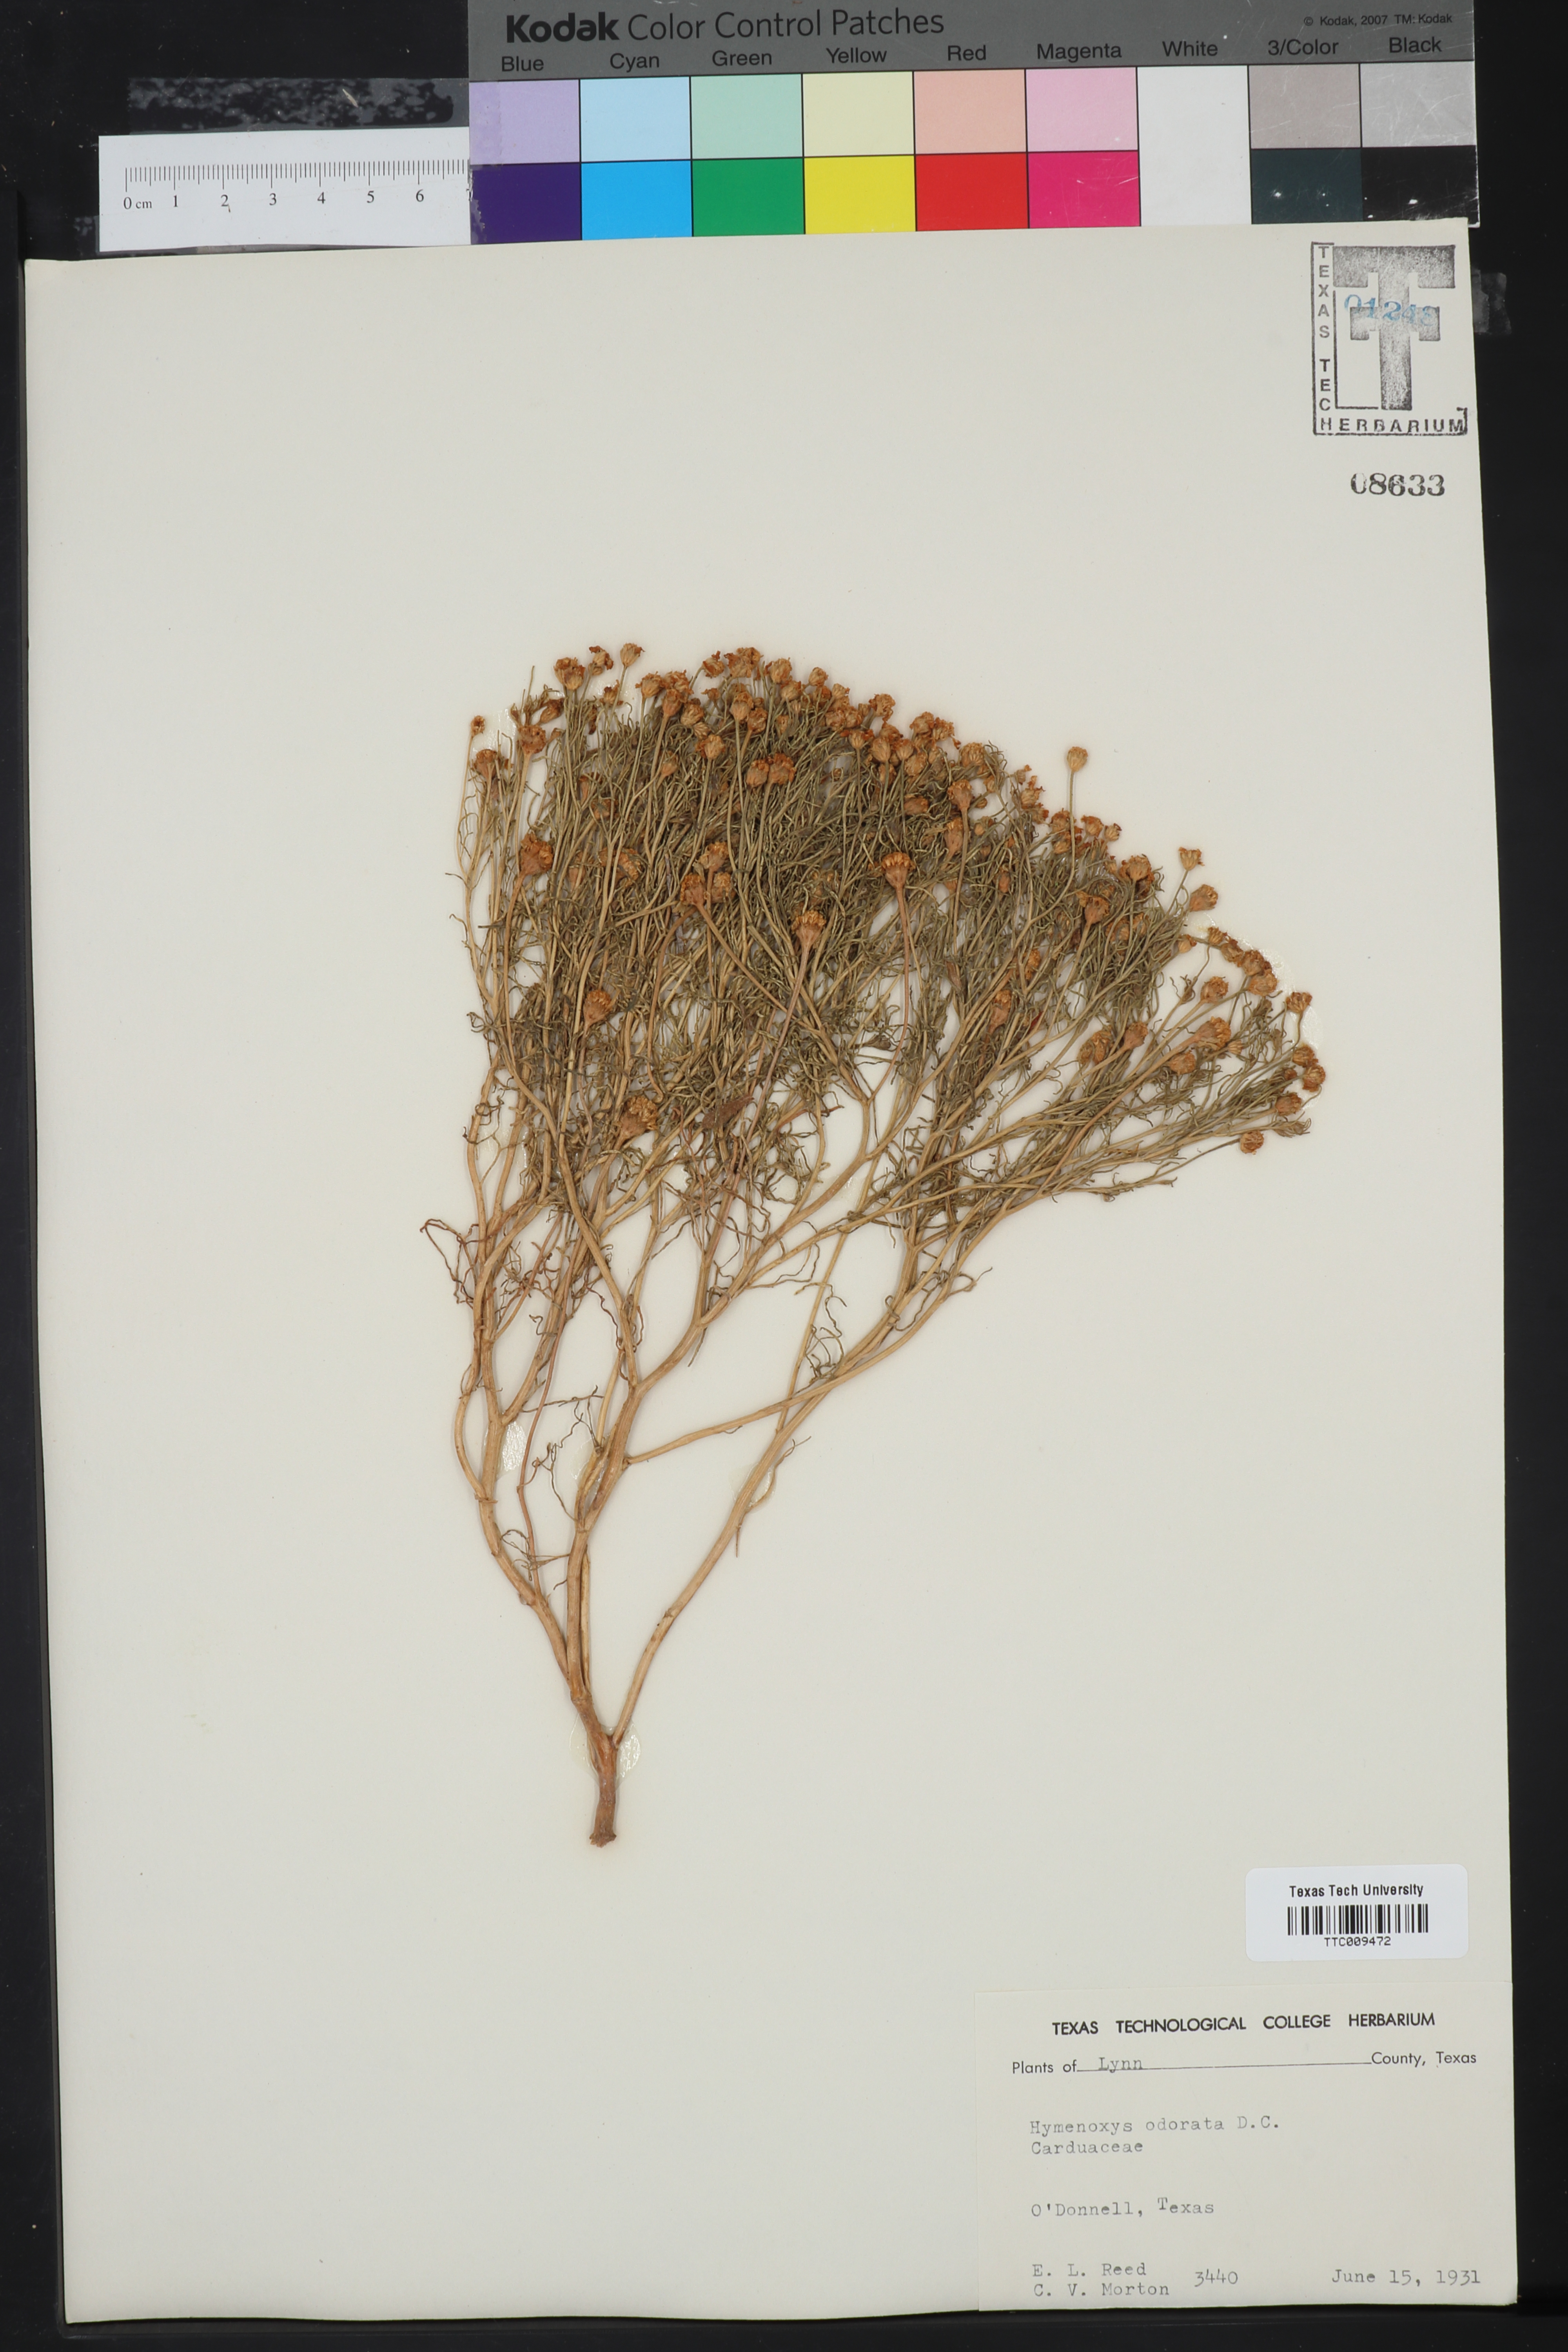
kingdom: Plantae
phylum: Tracheophyta
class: Magnoliopsida
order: Asterales
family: Asteraceae
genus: Hymenoxys
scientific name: Hymenoxys odorata
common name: Bitter rubberweed
